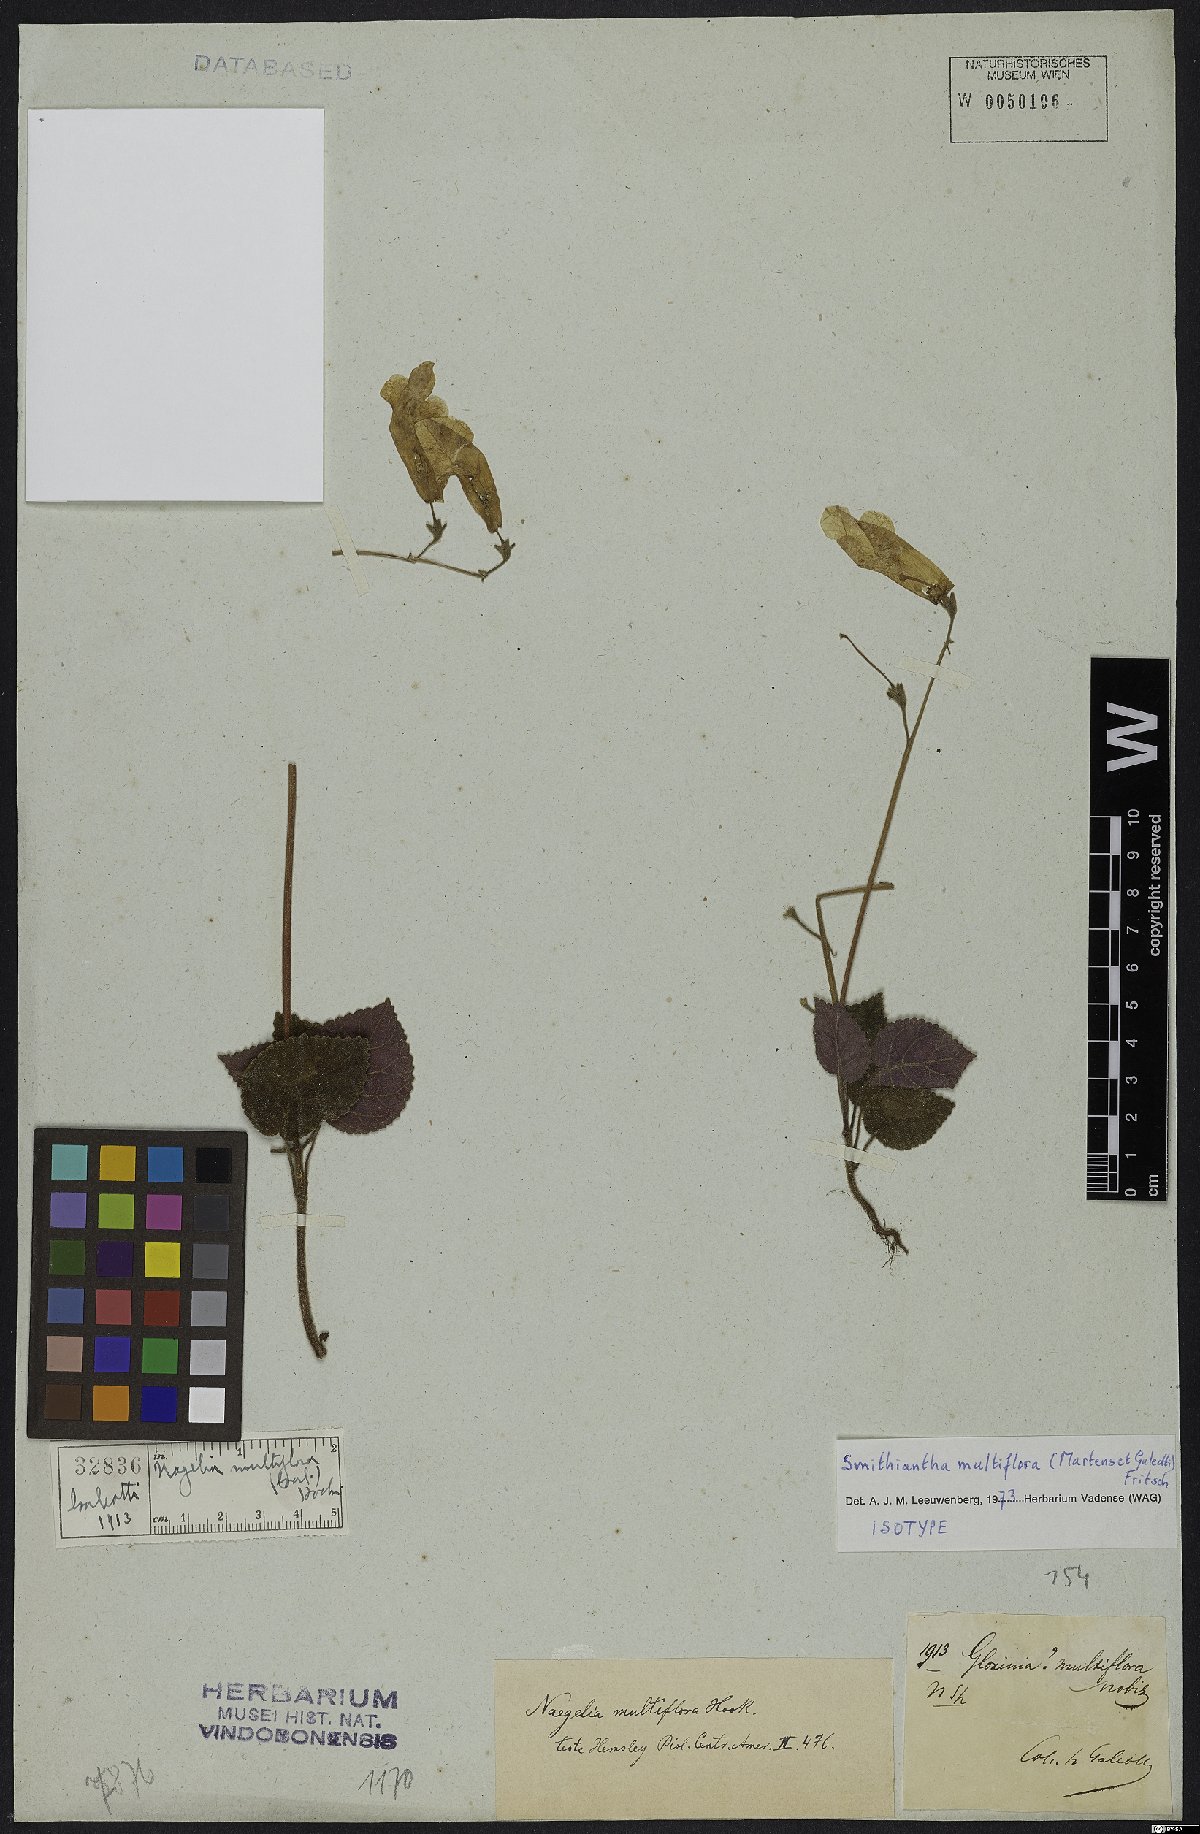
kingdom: Plantae
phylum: Tracheophyta
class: Magnoliopsida
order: Lamiales
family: Gesneriaceae
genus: Smithiantha
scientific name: Smithiantha multiflora
